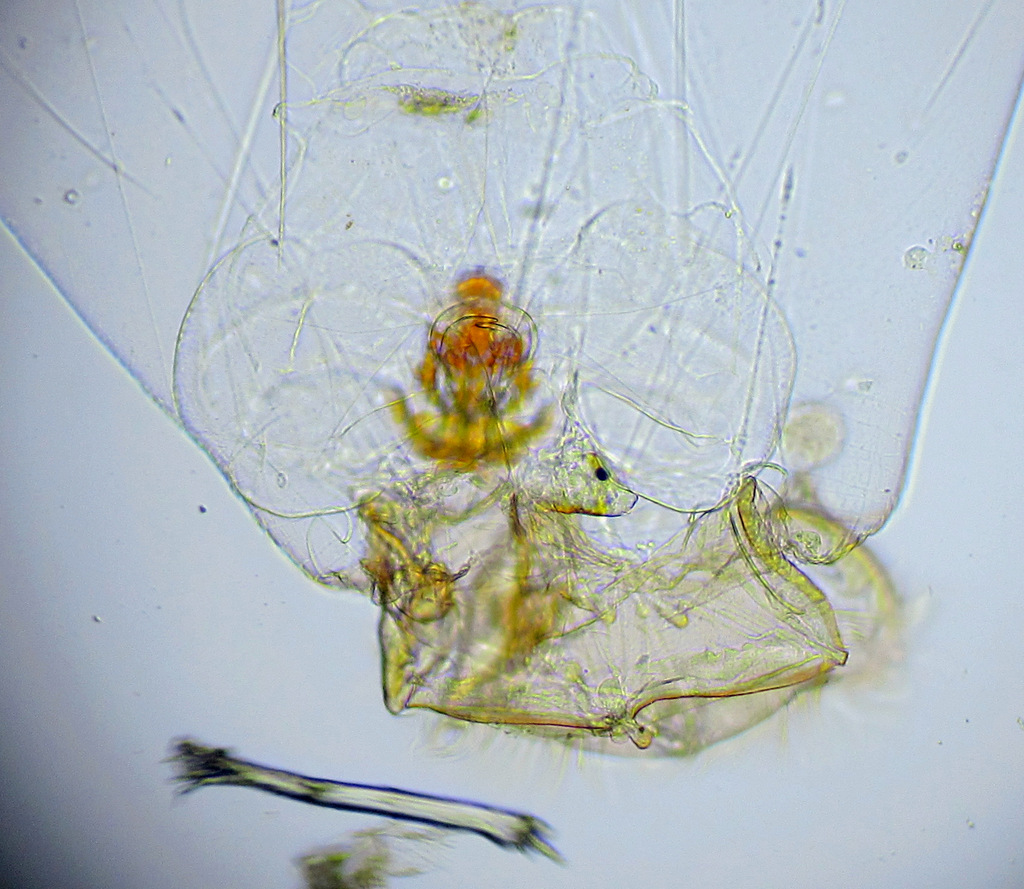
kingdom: Animalia
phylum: Rotifera
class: Eurotatoria
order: Ploima
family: Asplanchnidae
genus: Asplanchna
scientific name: Asplanchna priodonta
